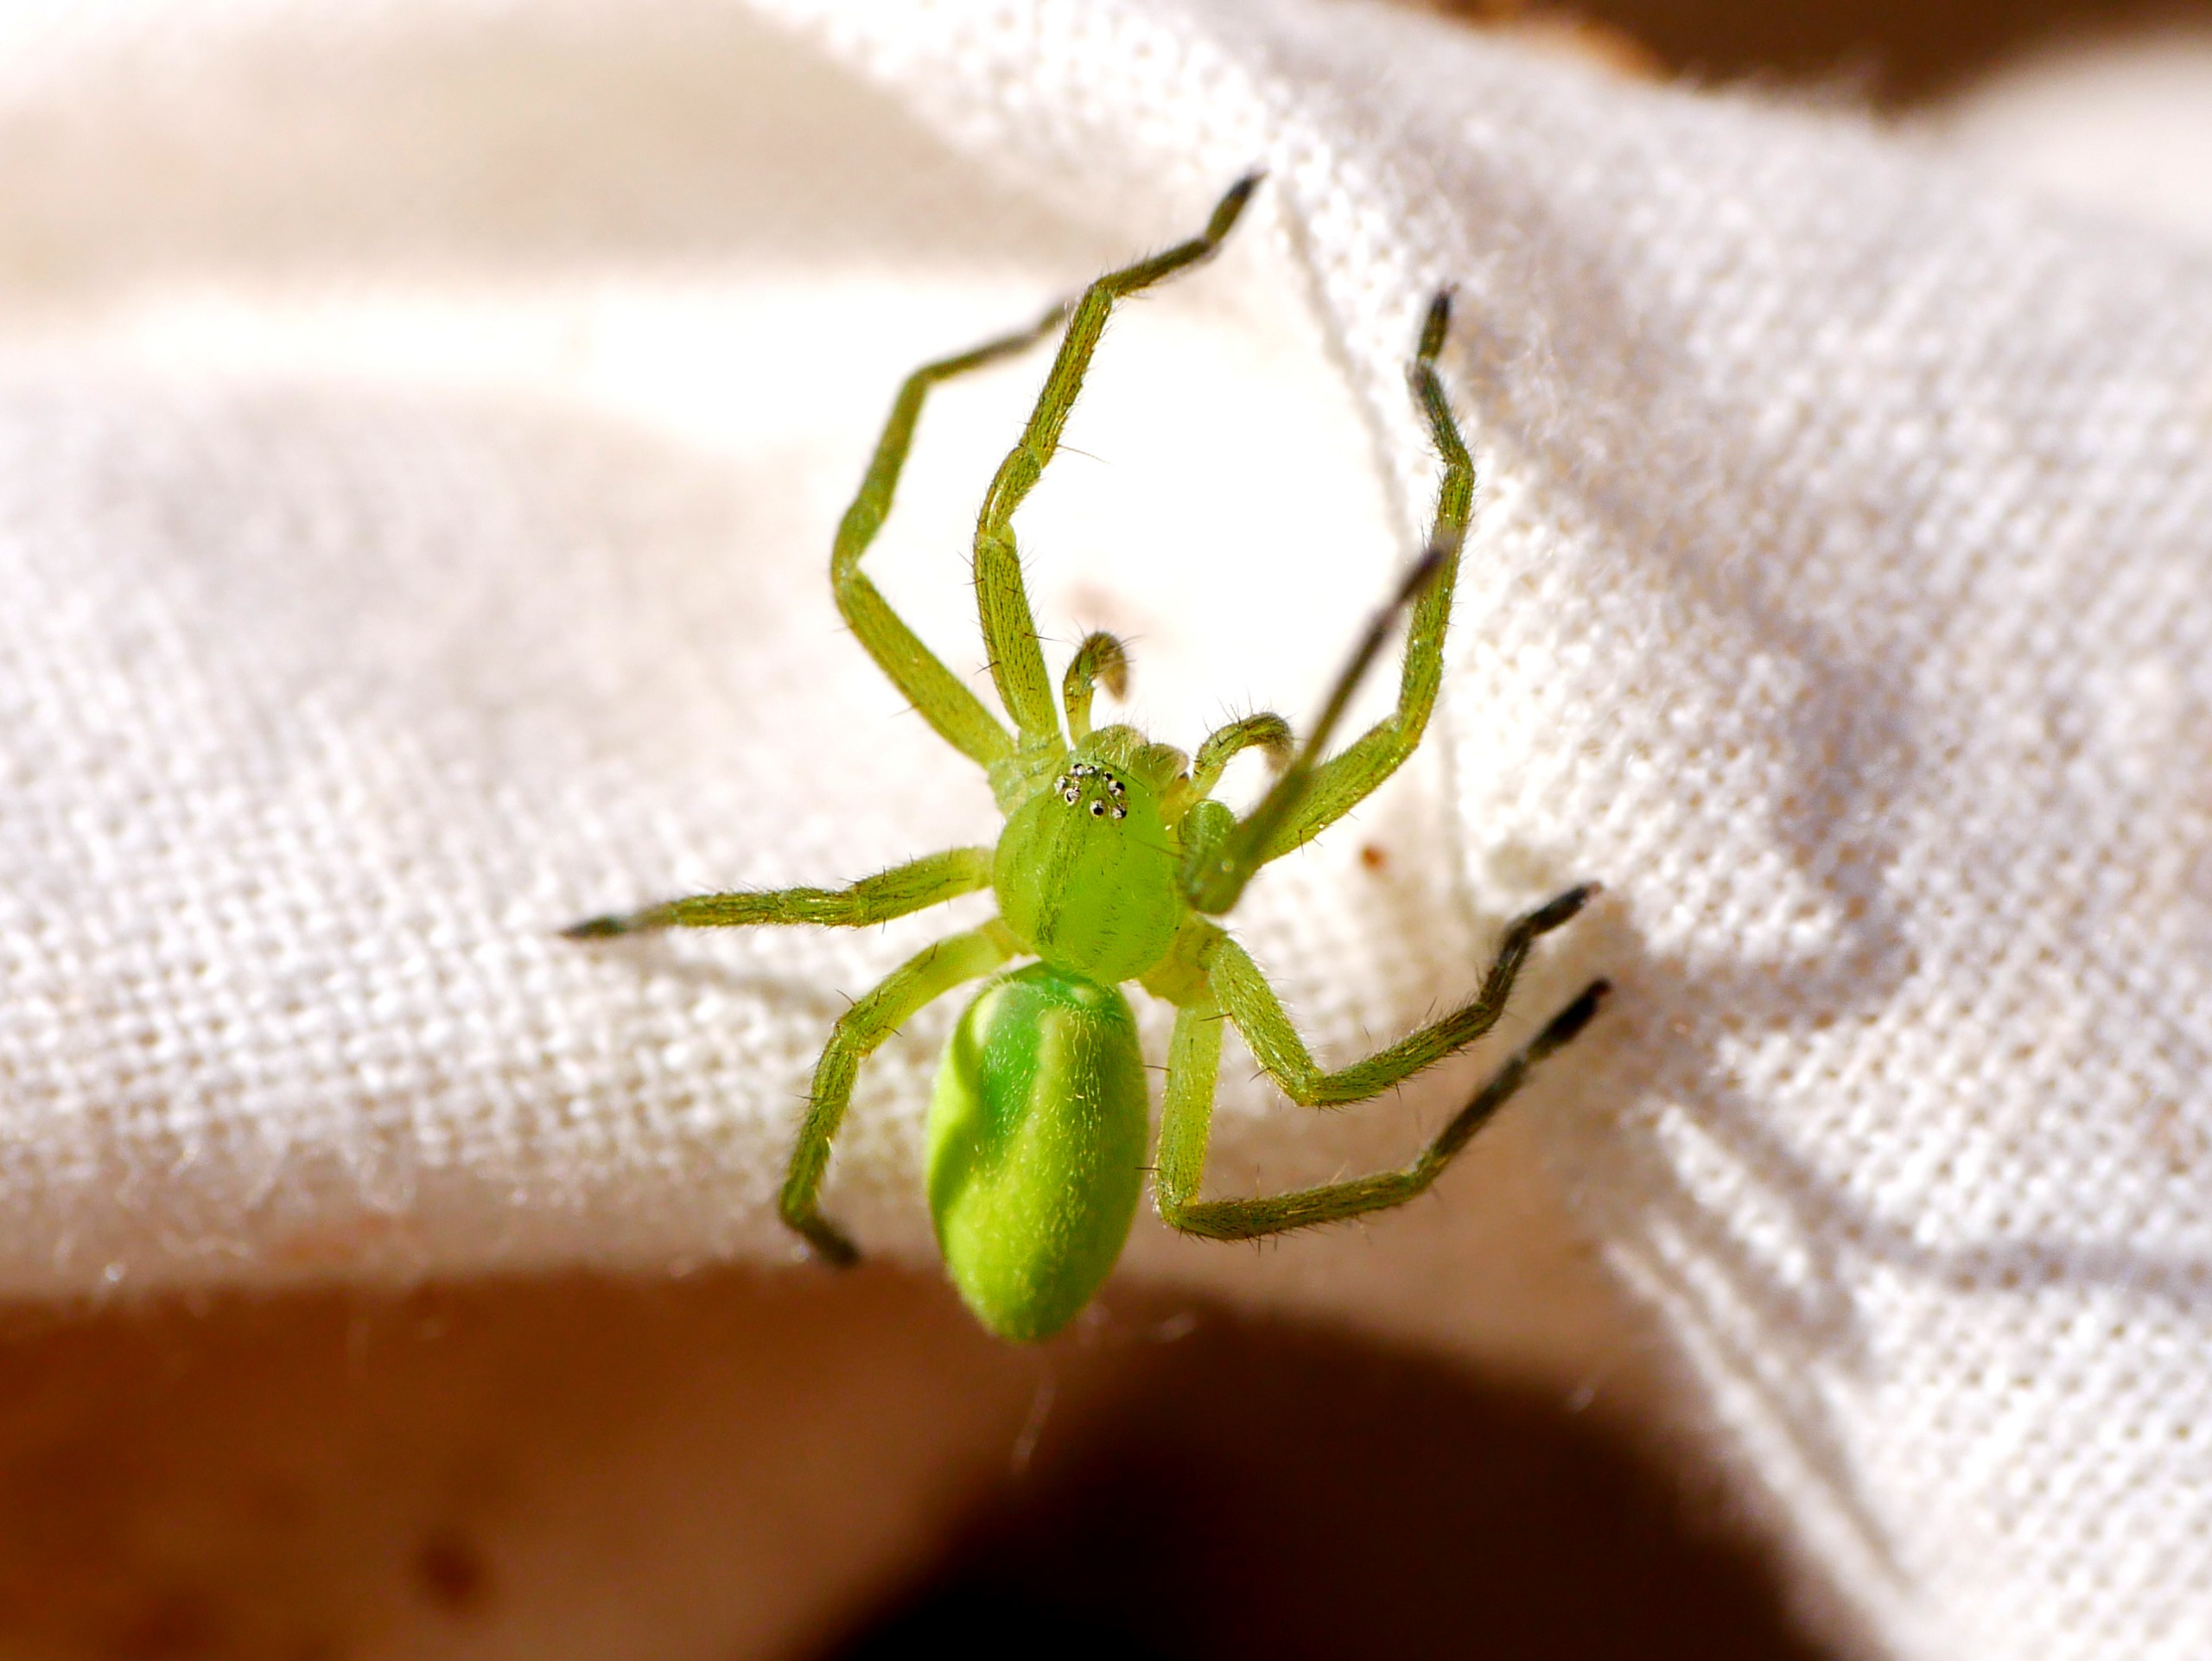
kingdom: Animalia
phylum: Arthropoda
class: Arachnida
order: Araneae
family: Sparassidae
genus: Micrommata
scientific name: Micrommata virescens
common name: Smaragdedderkop
